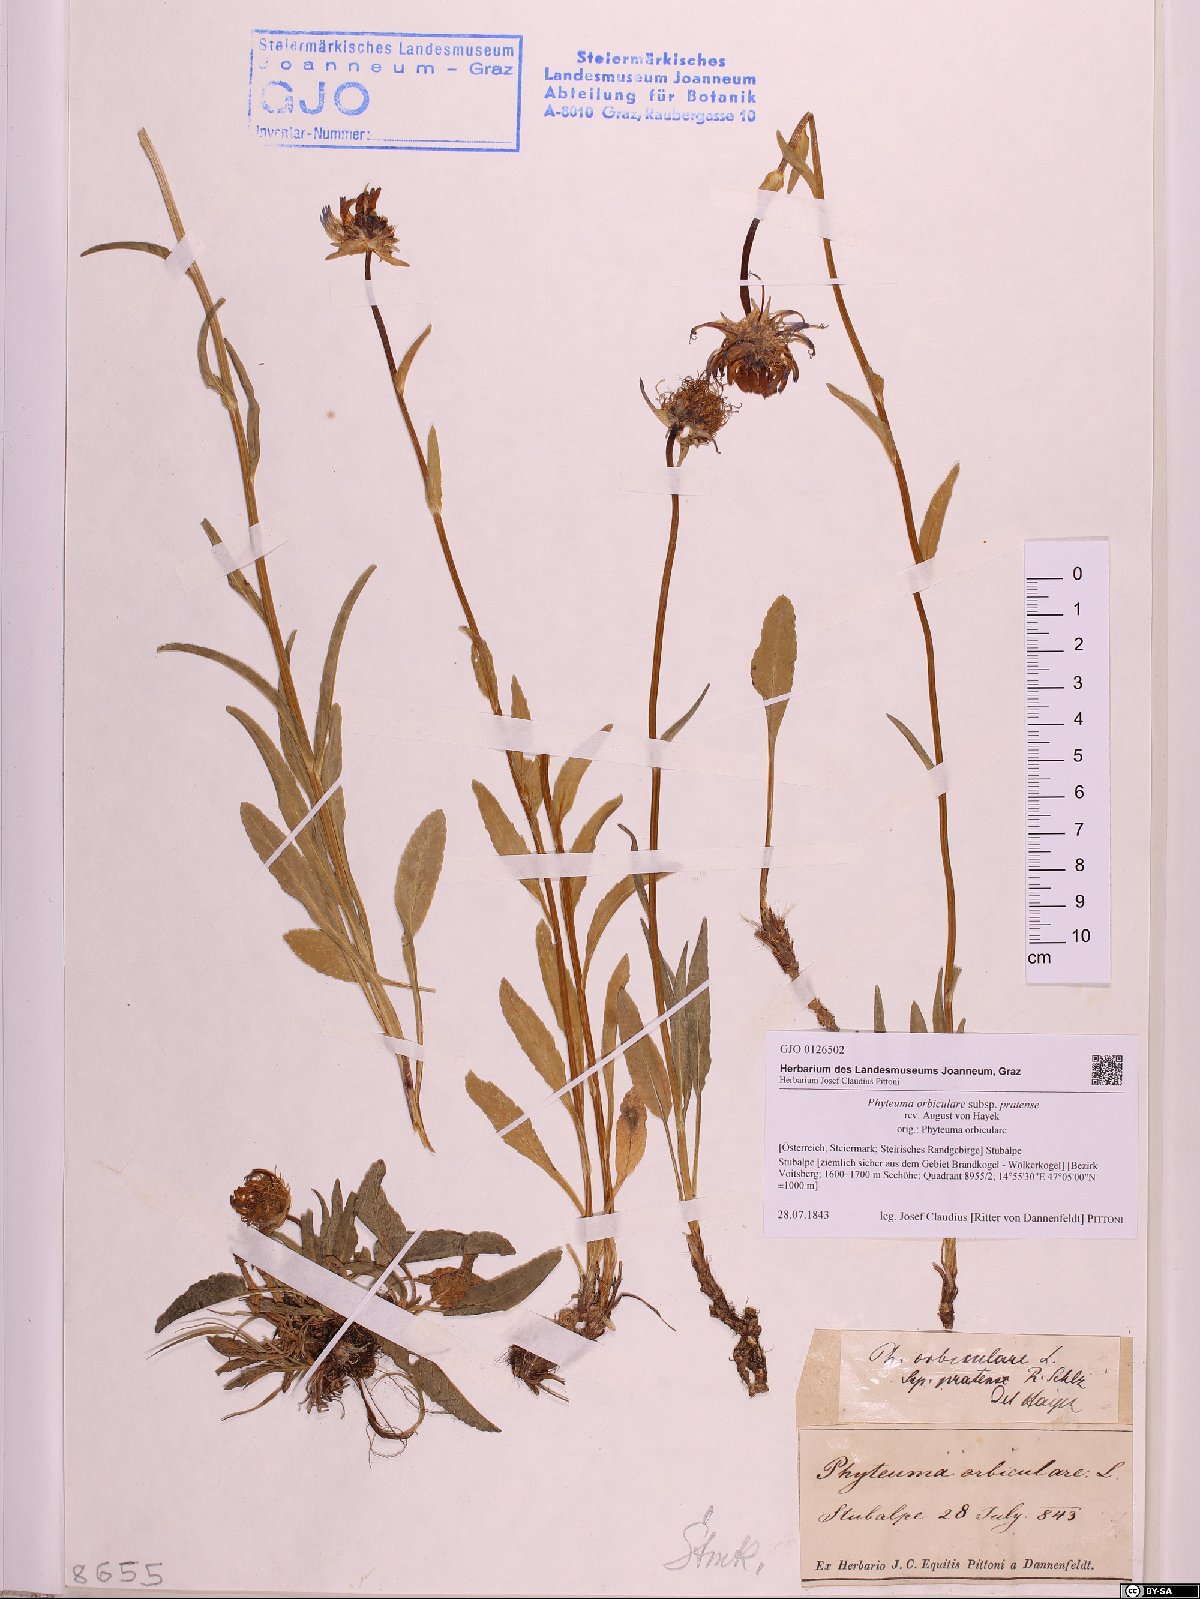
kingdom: Plantae
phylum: Tracheophyta
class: Magnoliopsida
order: Asterales
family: Campanulaceae
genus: Phyteuma
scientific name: Phyteuma orbiculare
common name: Round-headed rampion
